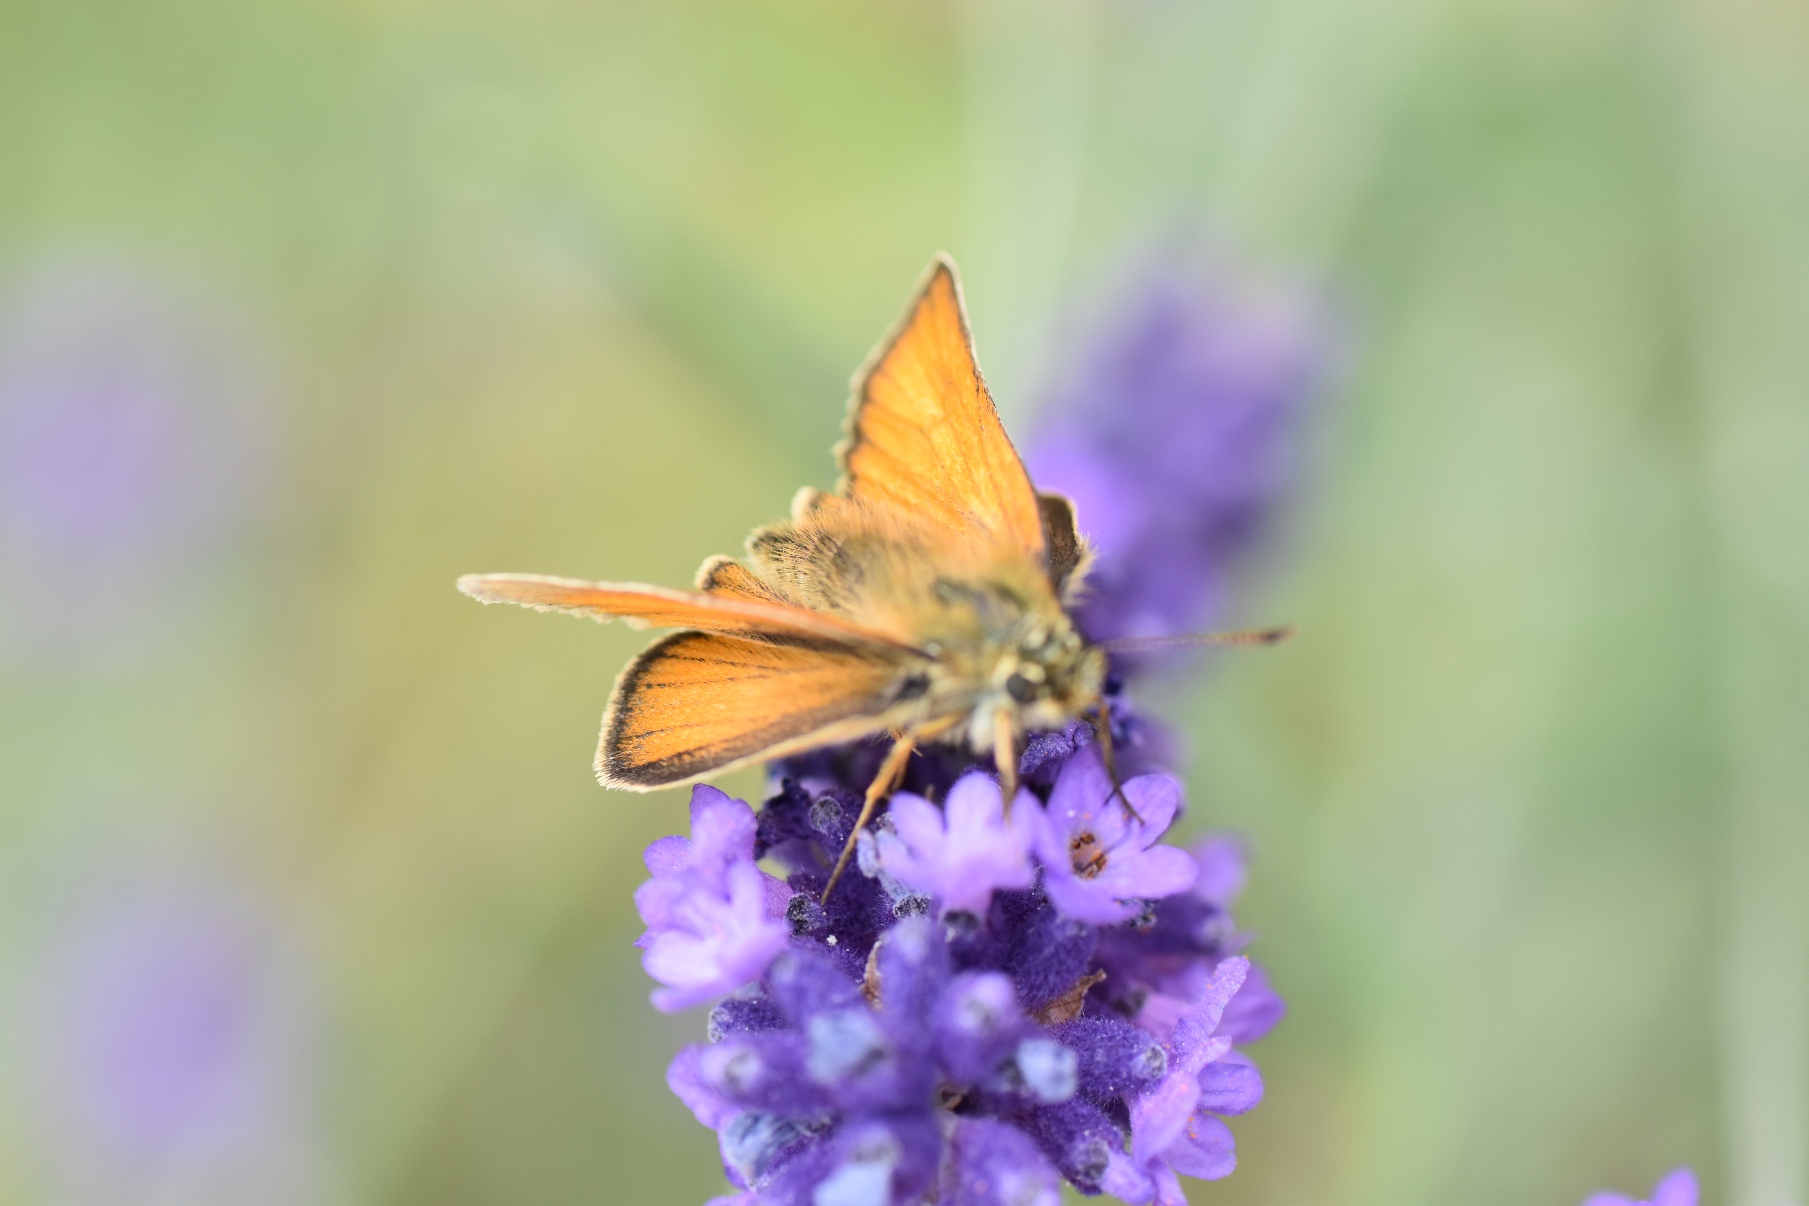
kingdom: Animalia
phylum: Arthropoda
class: Insecta
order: Lepidoptera
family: Hesperiidae
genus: Thymelicus
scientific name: Thymelicus lineola
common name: Stregbredpande
